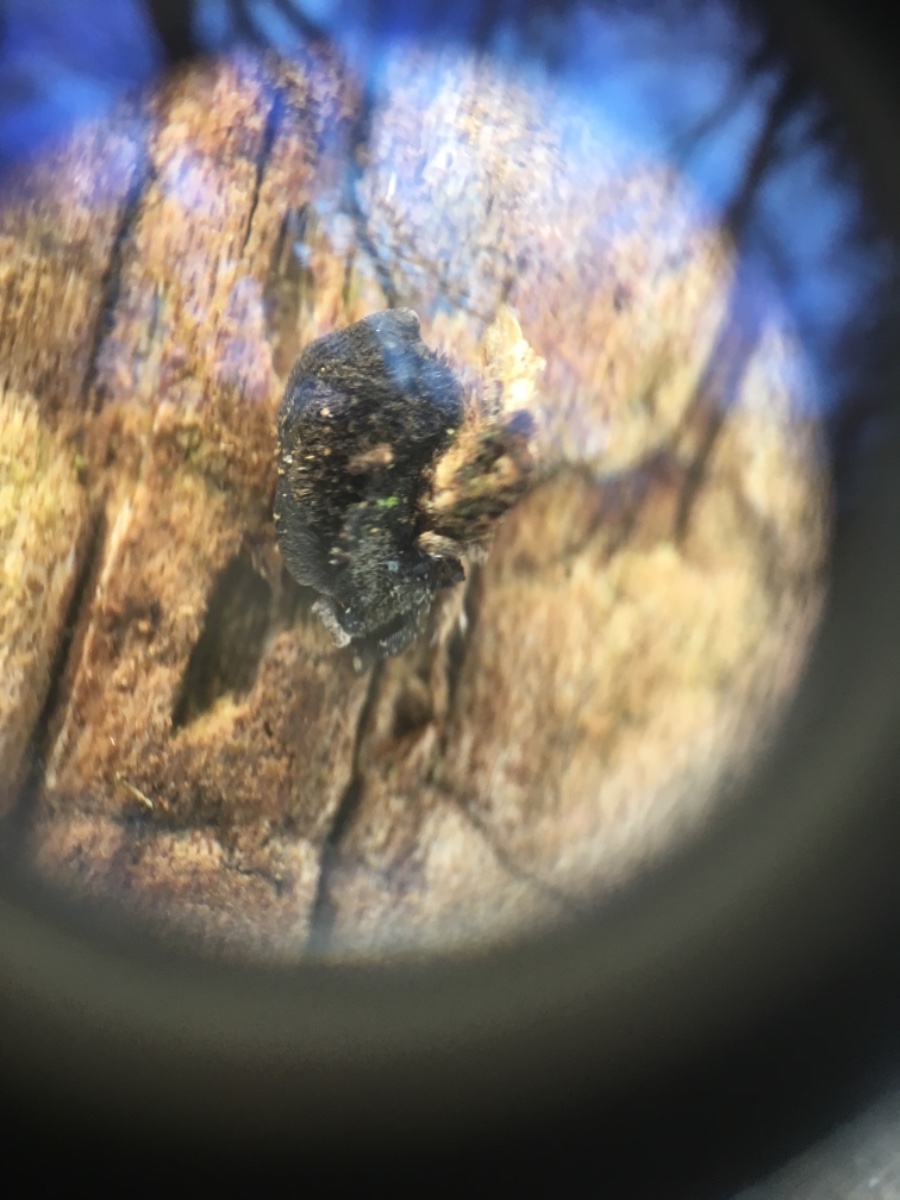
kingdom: Fungi
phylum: Basidiomycota
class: Agaricomycetes
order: Agaricales
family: Pleurotaceae
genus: Resupinatus
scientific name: Resupinatus trichotis
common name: mørkfiltet barkhat
